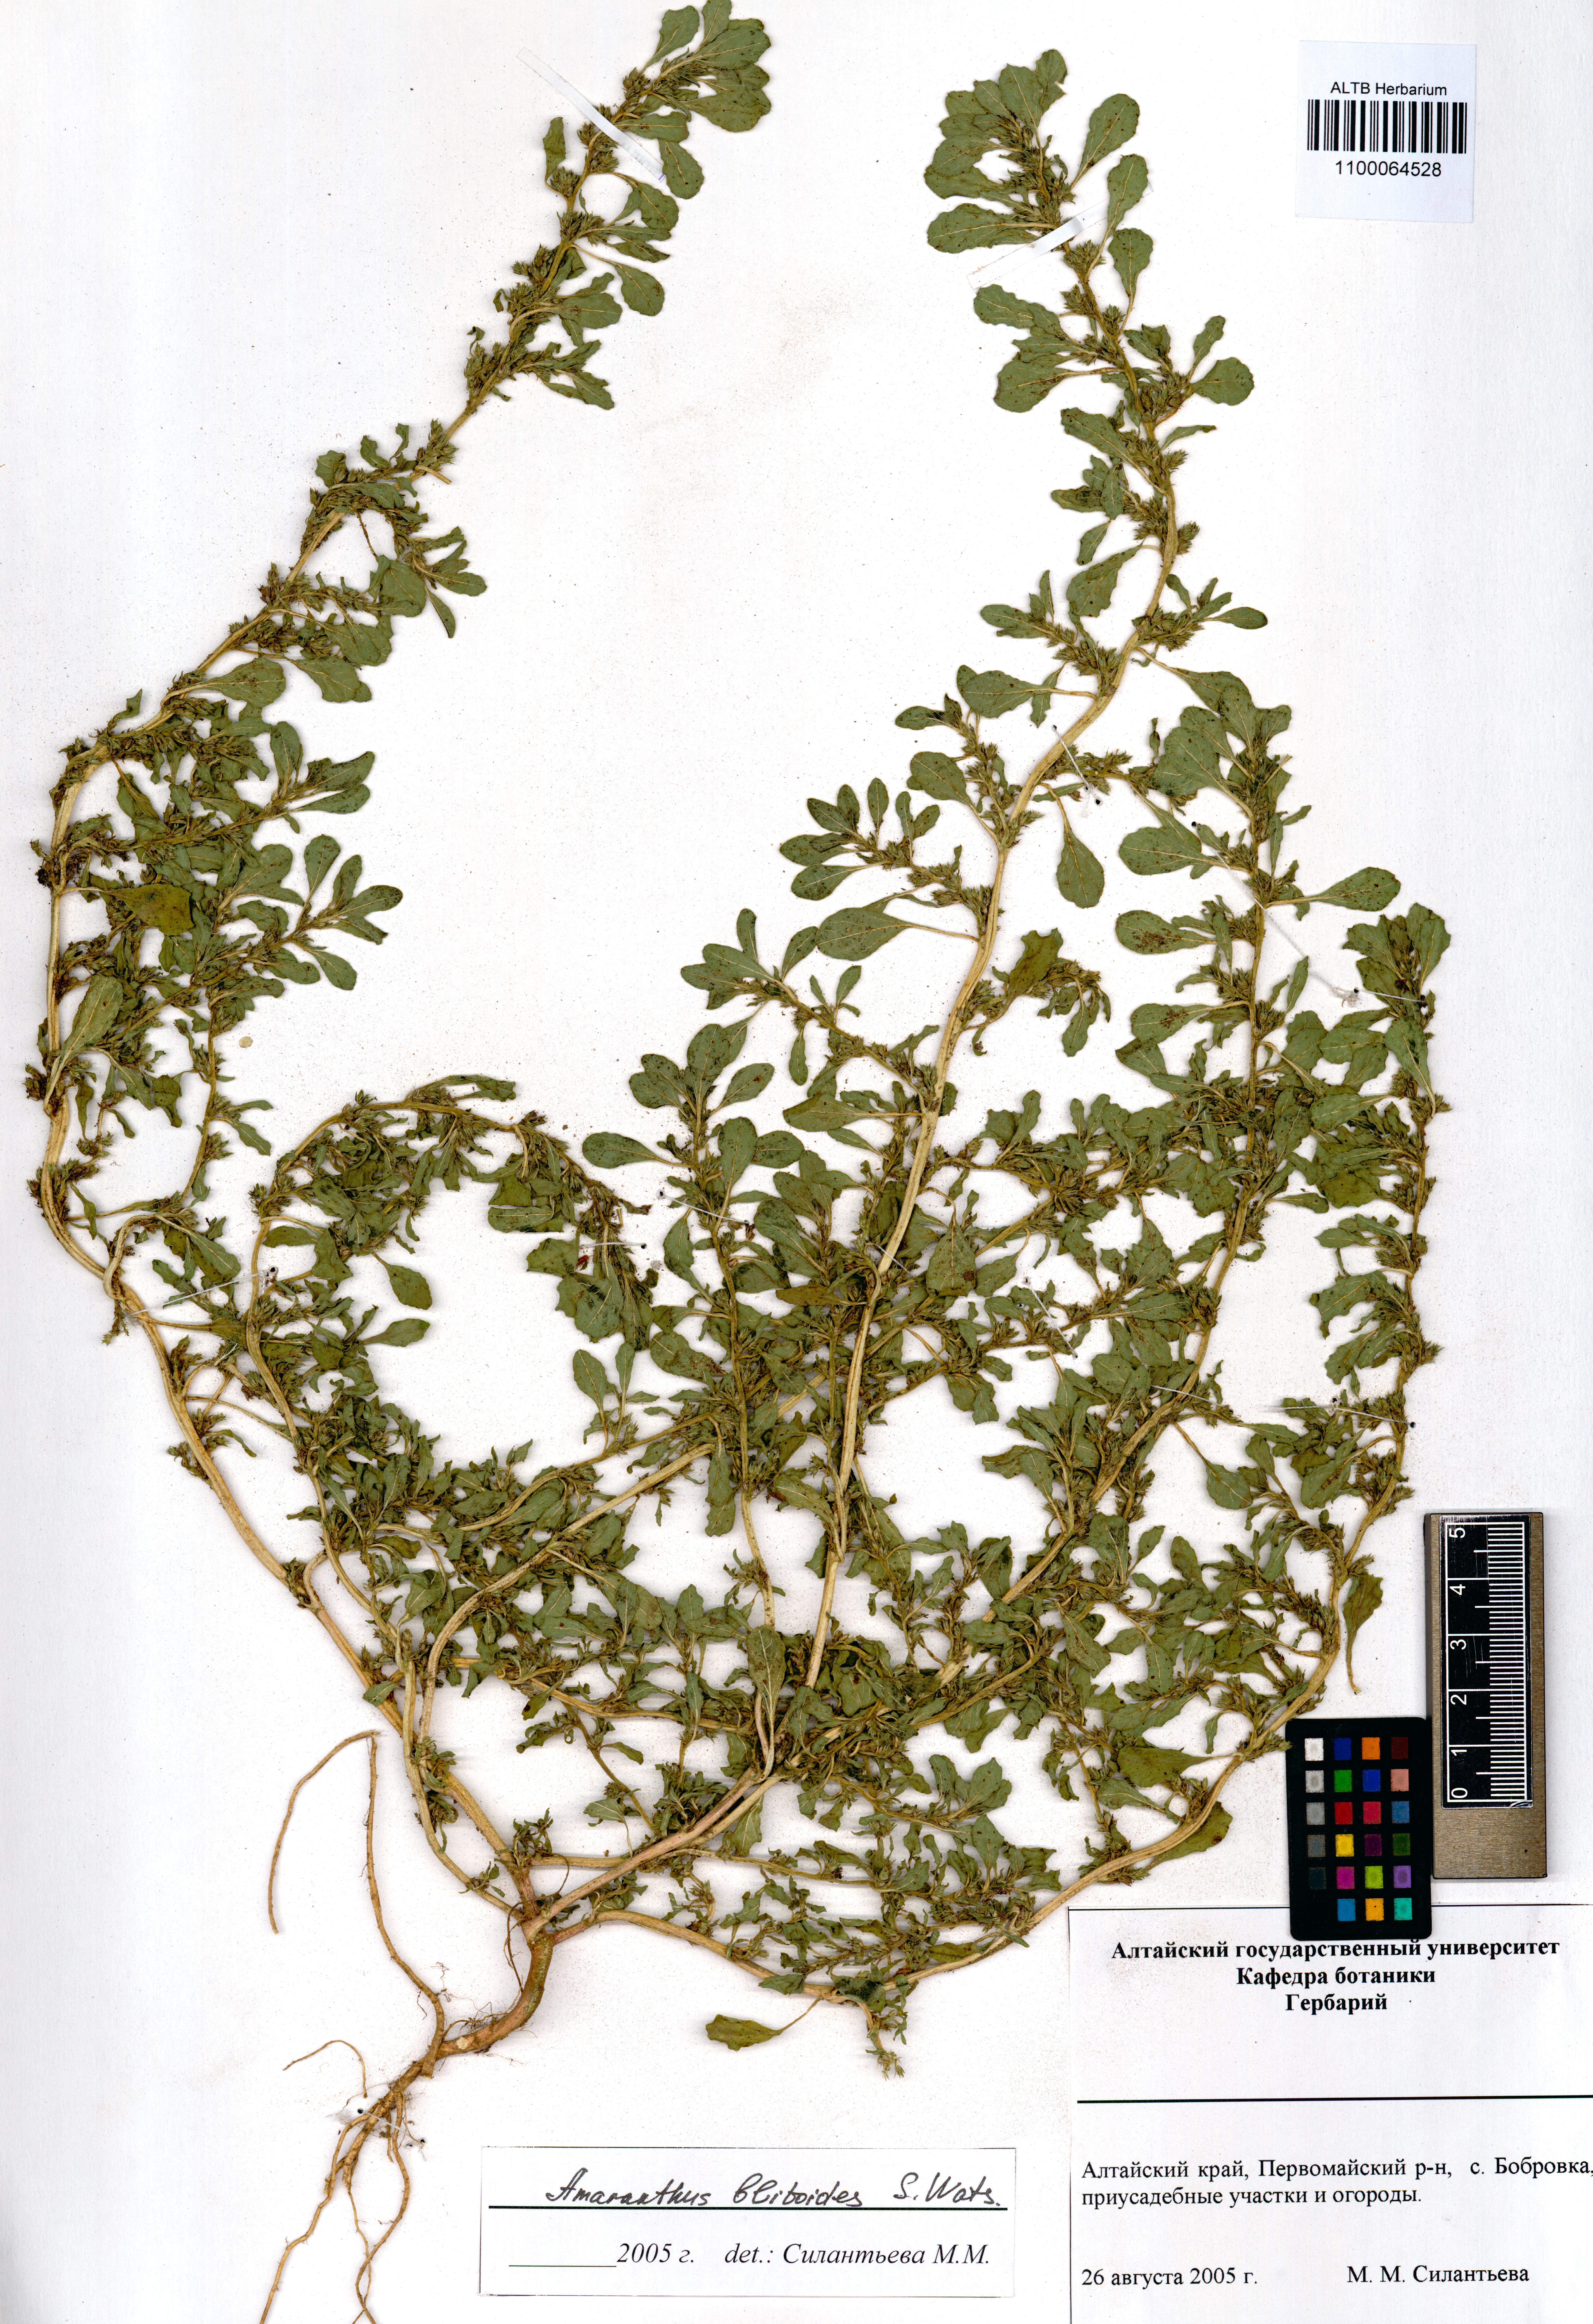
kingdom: Plantae
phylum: Tracheophyta
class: Magnoliopsida
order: Caryophyllales
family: Amaranthaceae
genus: Amaranthus
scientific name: Amaranthus blitoides
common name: Prostrate pigweed
